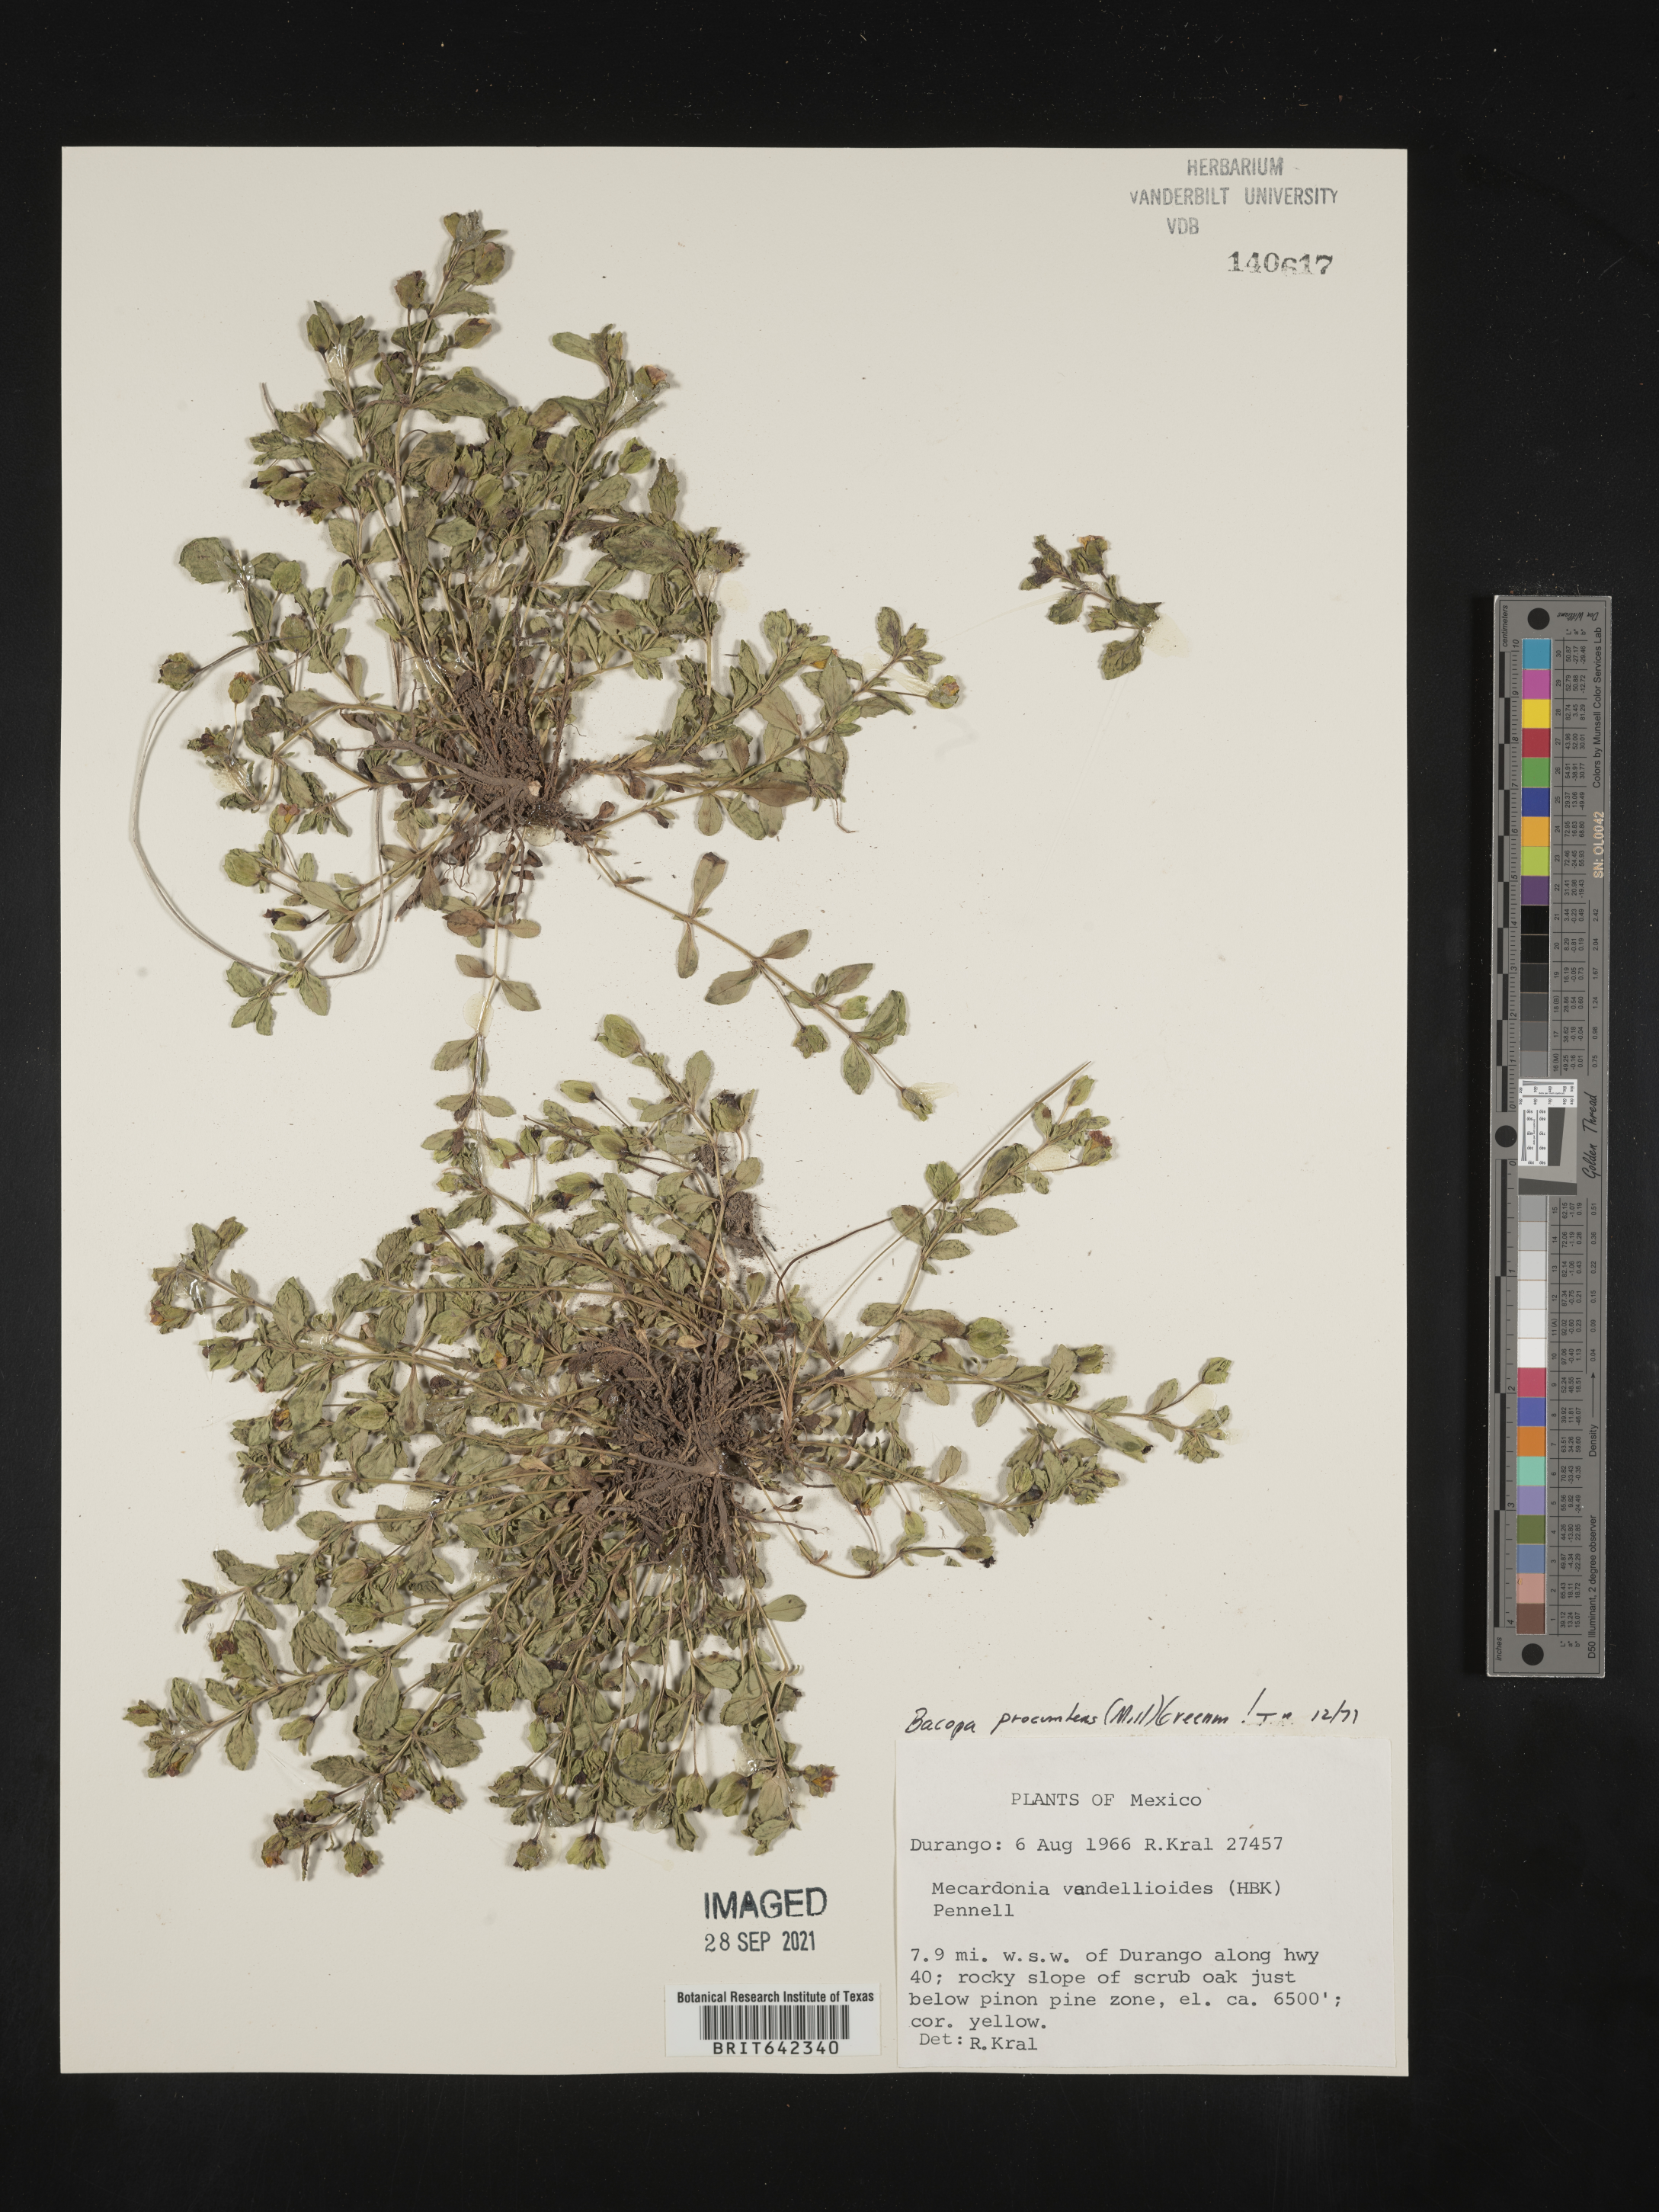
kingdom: Plantae
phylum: Tracheophyta
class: Magnoliopsida
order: Lamiales
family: Plantaginaceae
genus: Bacopa
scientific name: Bacopa
